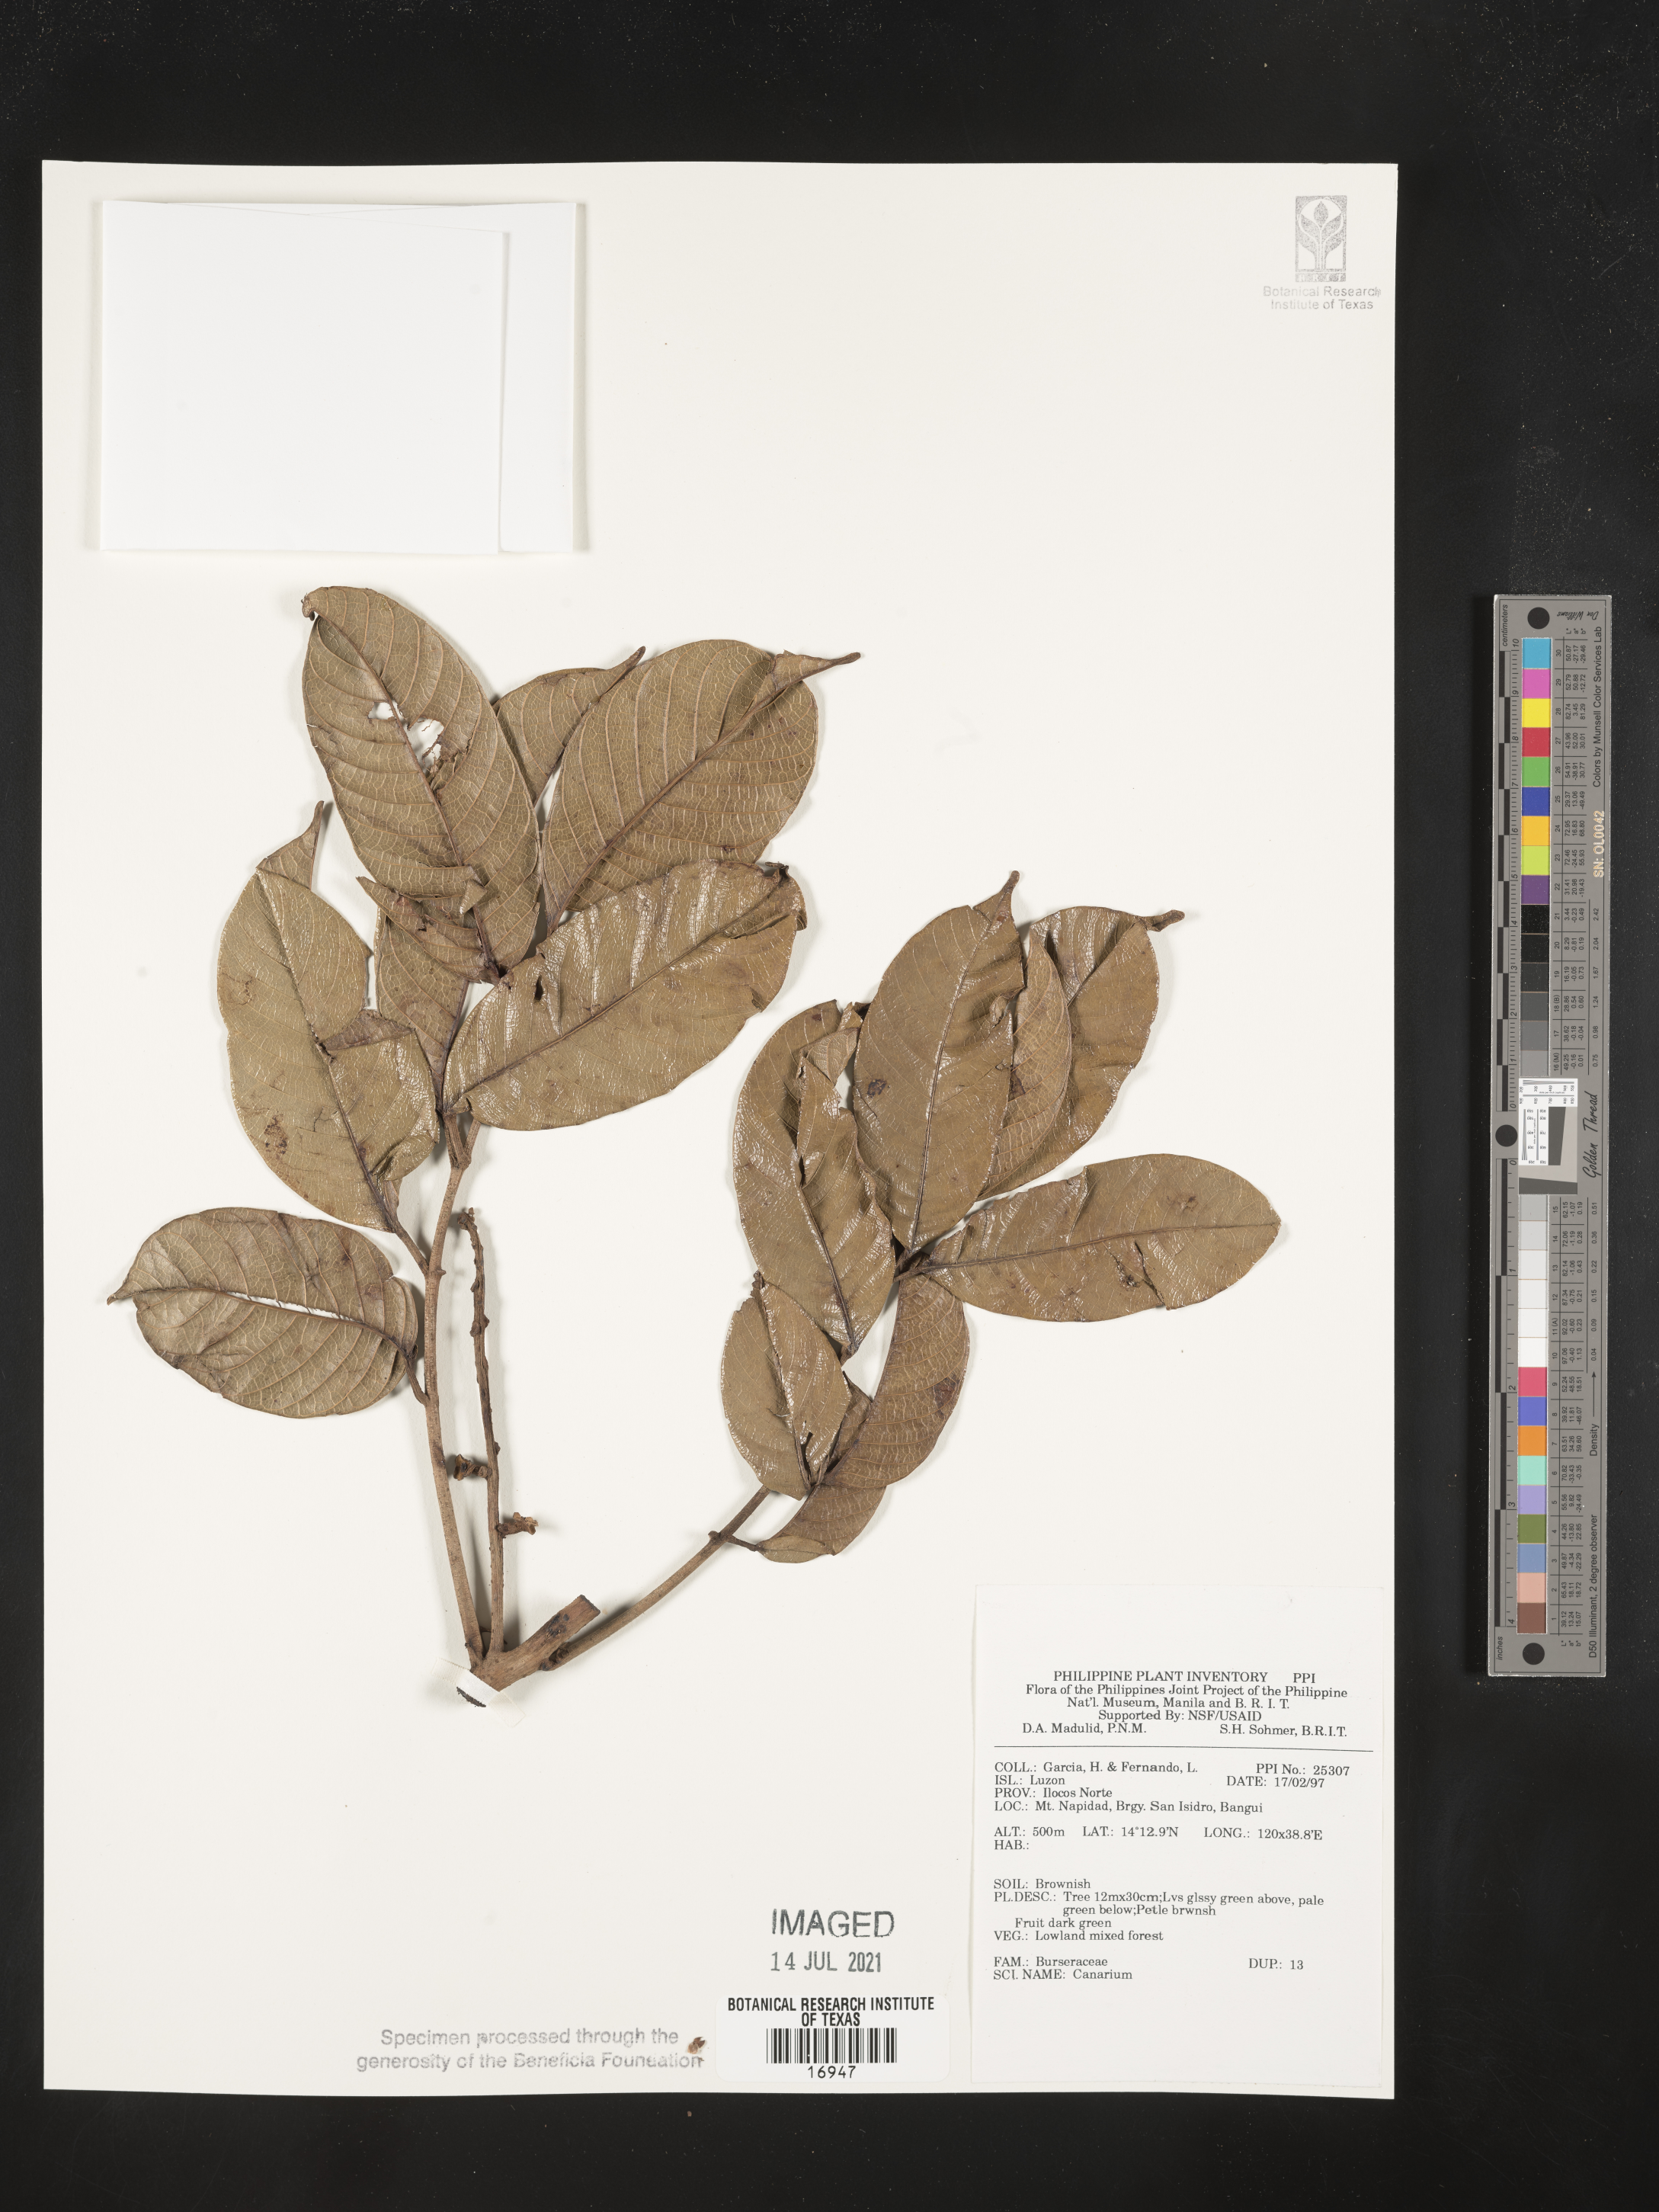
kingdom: Plantae
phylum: Tracheophyta
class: Magnoliopsida
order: Sapindales
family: Burseraceae
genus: Canarium
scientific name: Canarium
